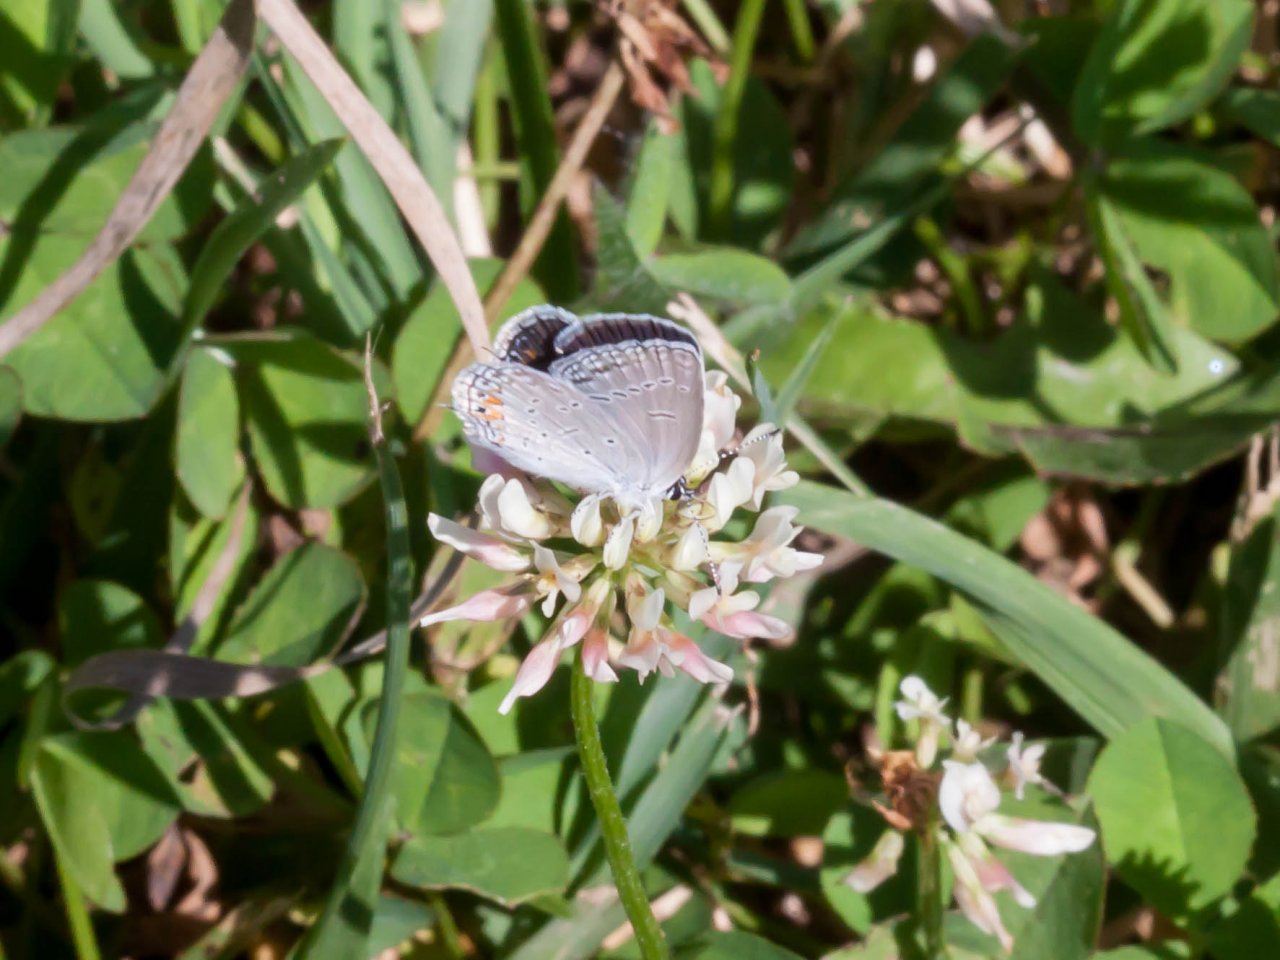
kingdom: Animalia
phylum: Arthropoda
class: Insecta
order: Lepidoptera
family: Lycaenidae
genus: Elkalyce
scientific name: Elkalyce comyntas
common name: Eastern Tailed-Blue
